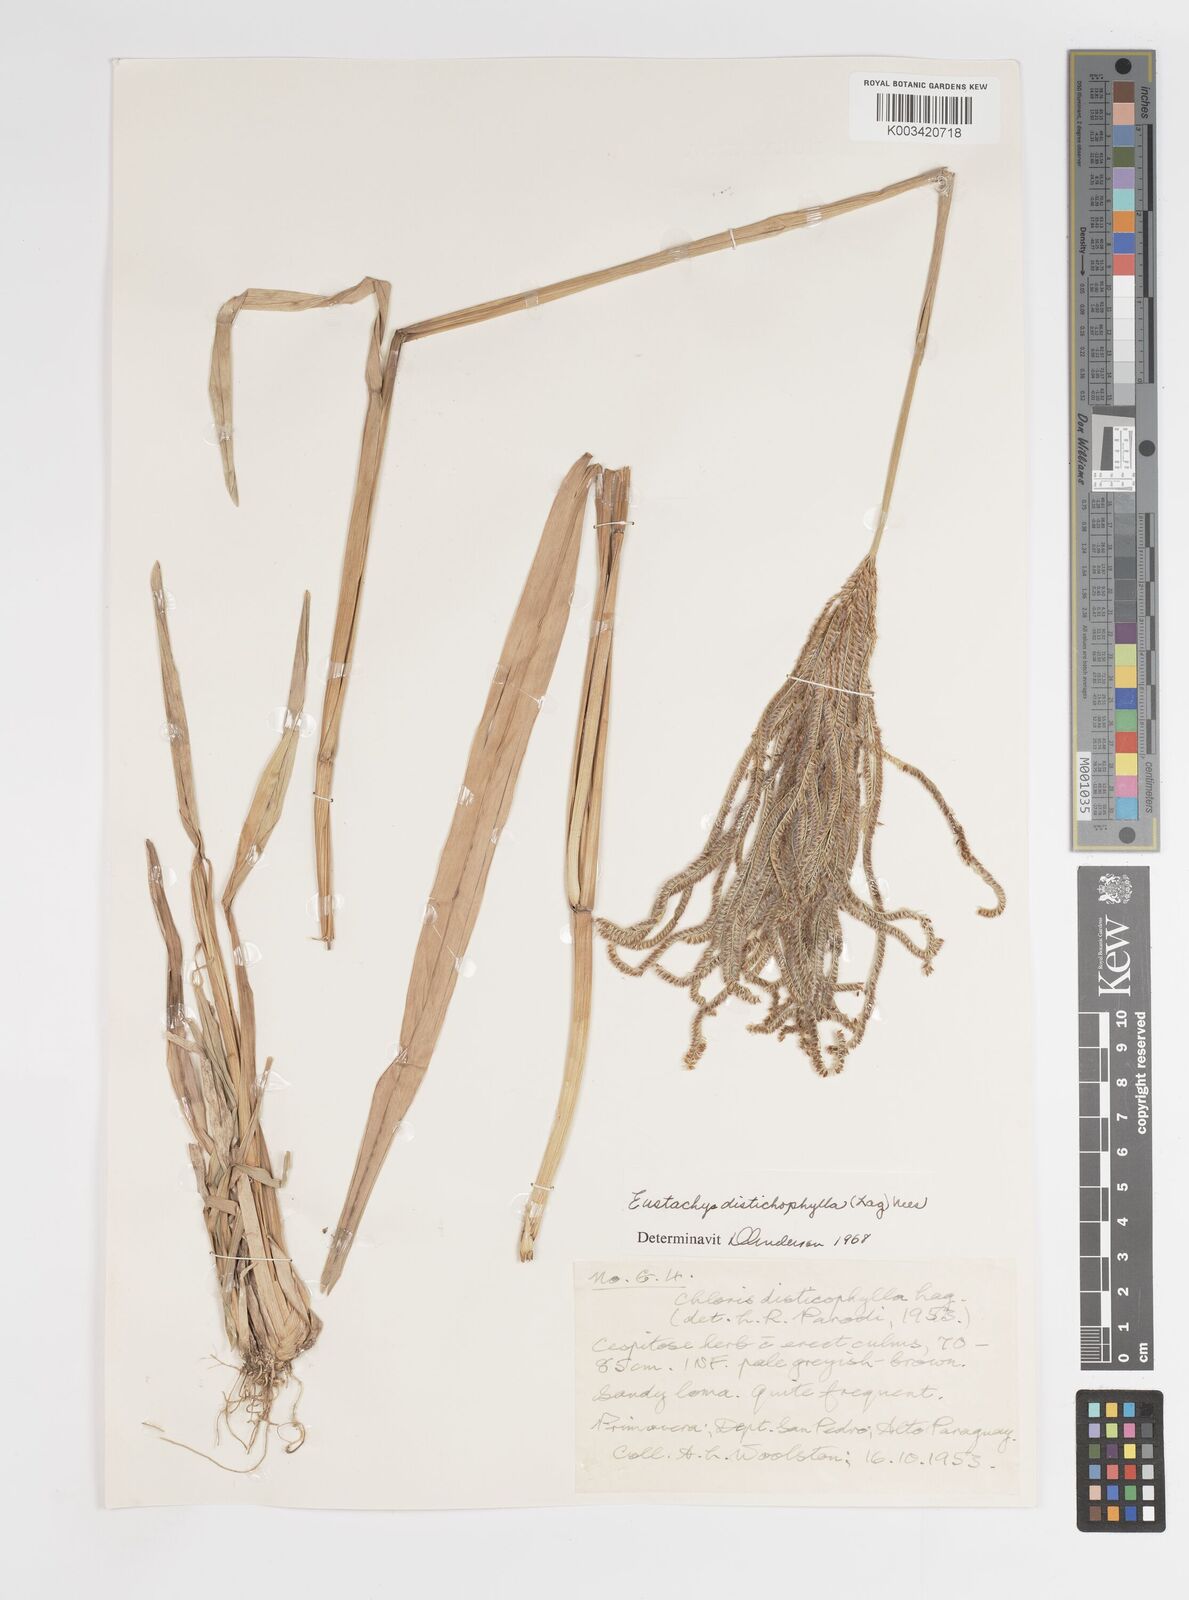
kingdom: Plantae
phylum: Tracheophyta
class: Liliopsida
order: Poales
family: Poaceae
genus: Eustachys
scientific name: Eustachys distichophylla
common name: Weeping fingergrass
